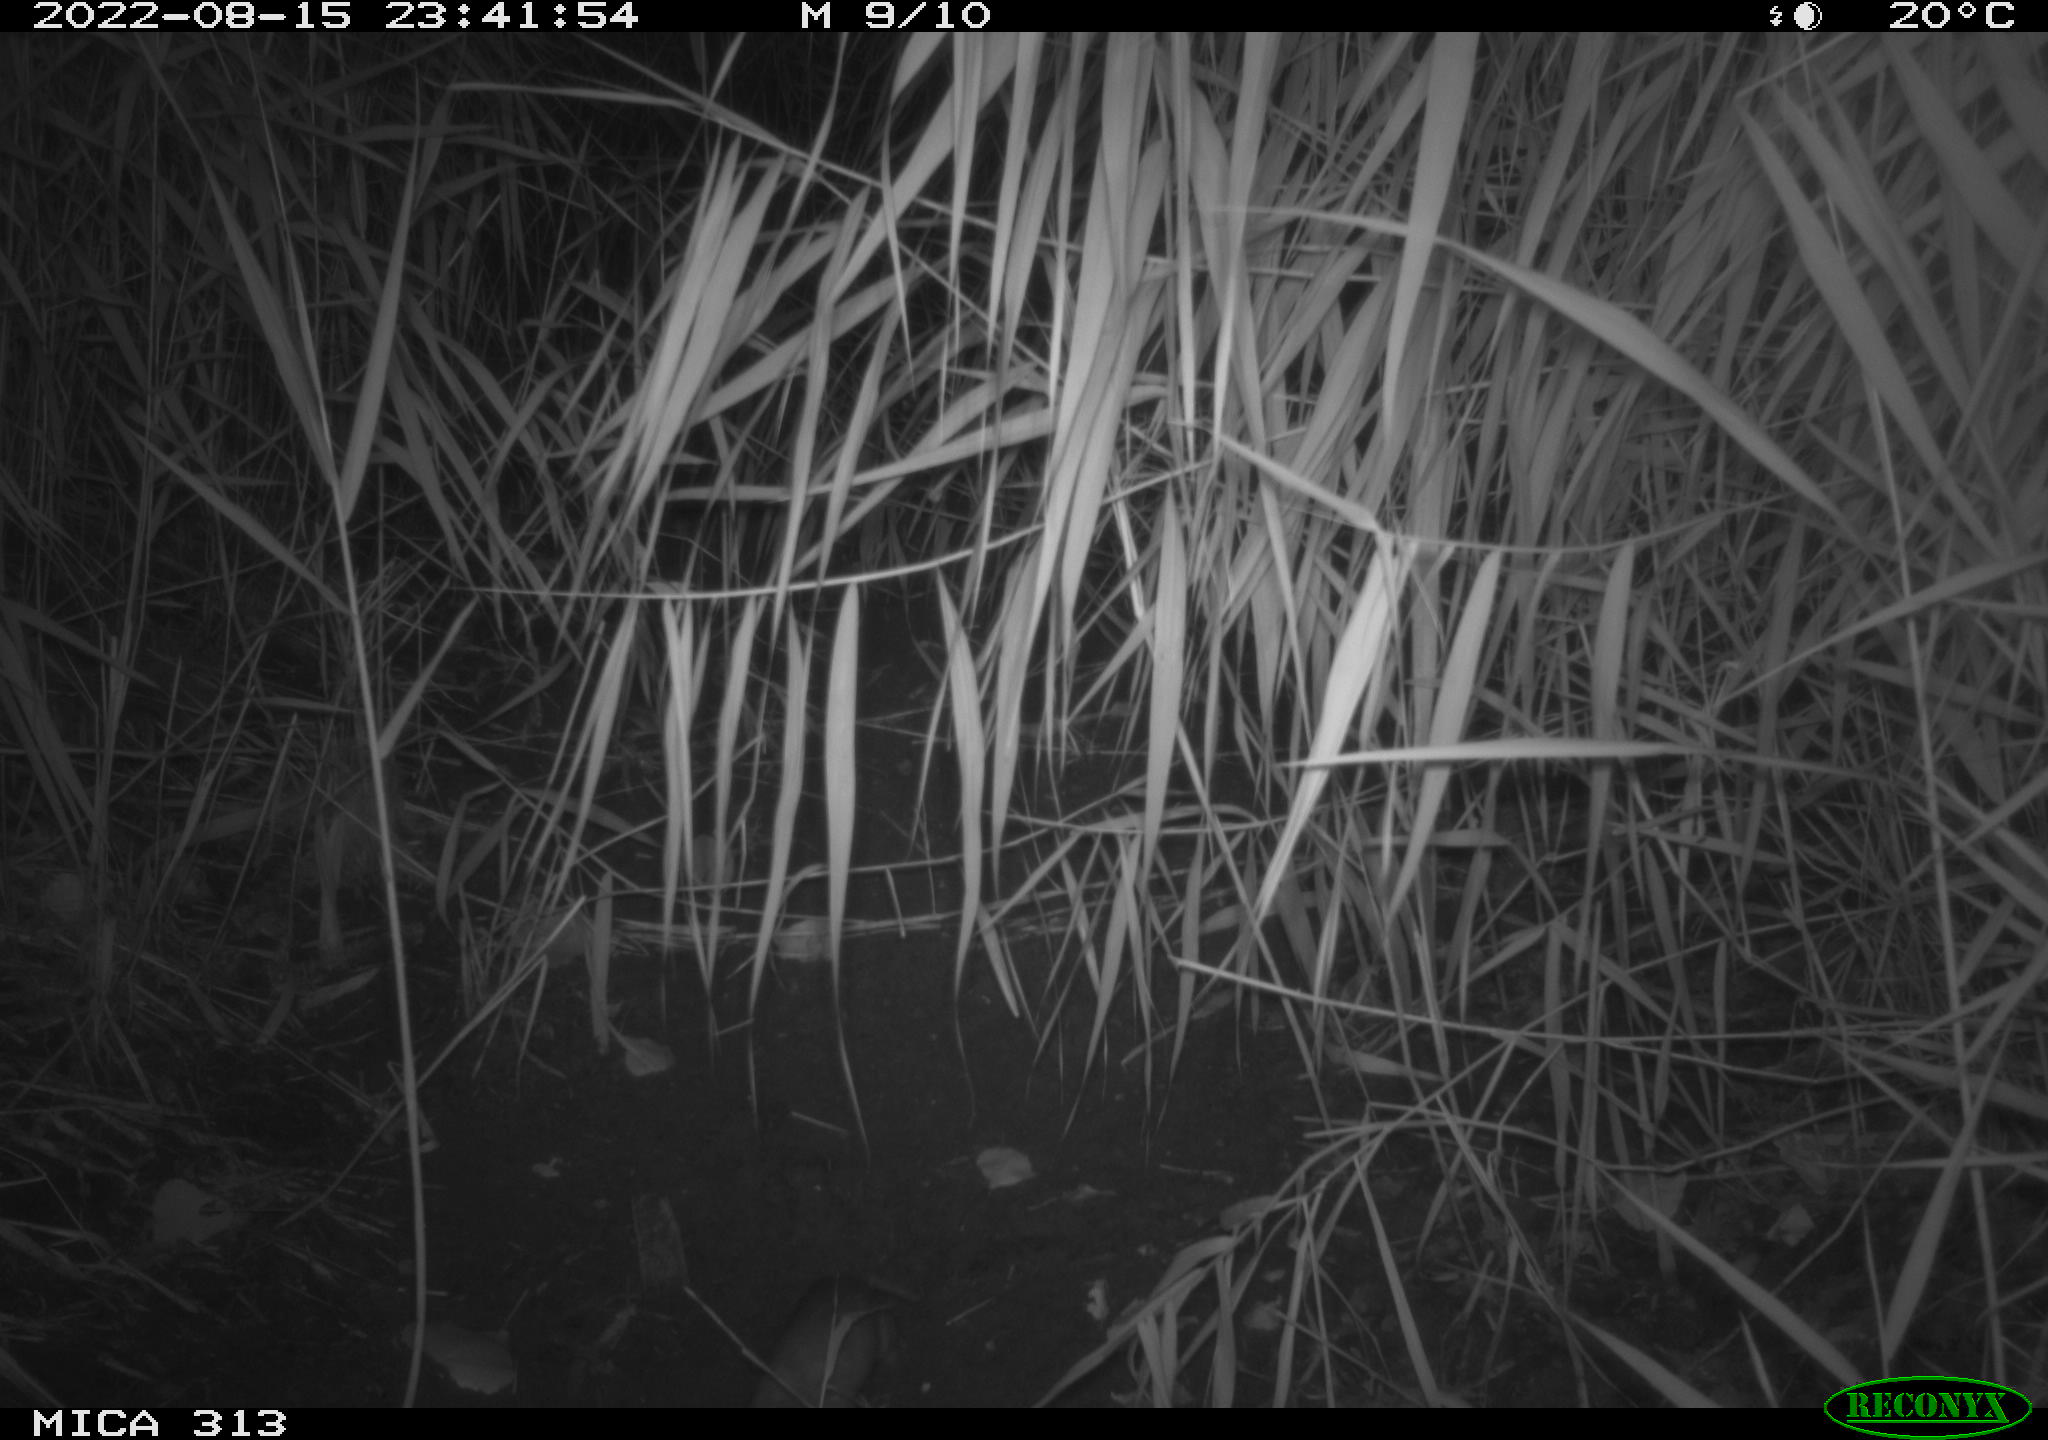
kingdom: Animalia
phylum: Chordata
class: Mammalia
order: Rodentia
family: Muridae
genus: Rattus
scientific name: Rattus norvegicus
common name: Brown rat
